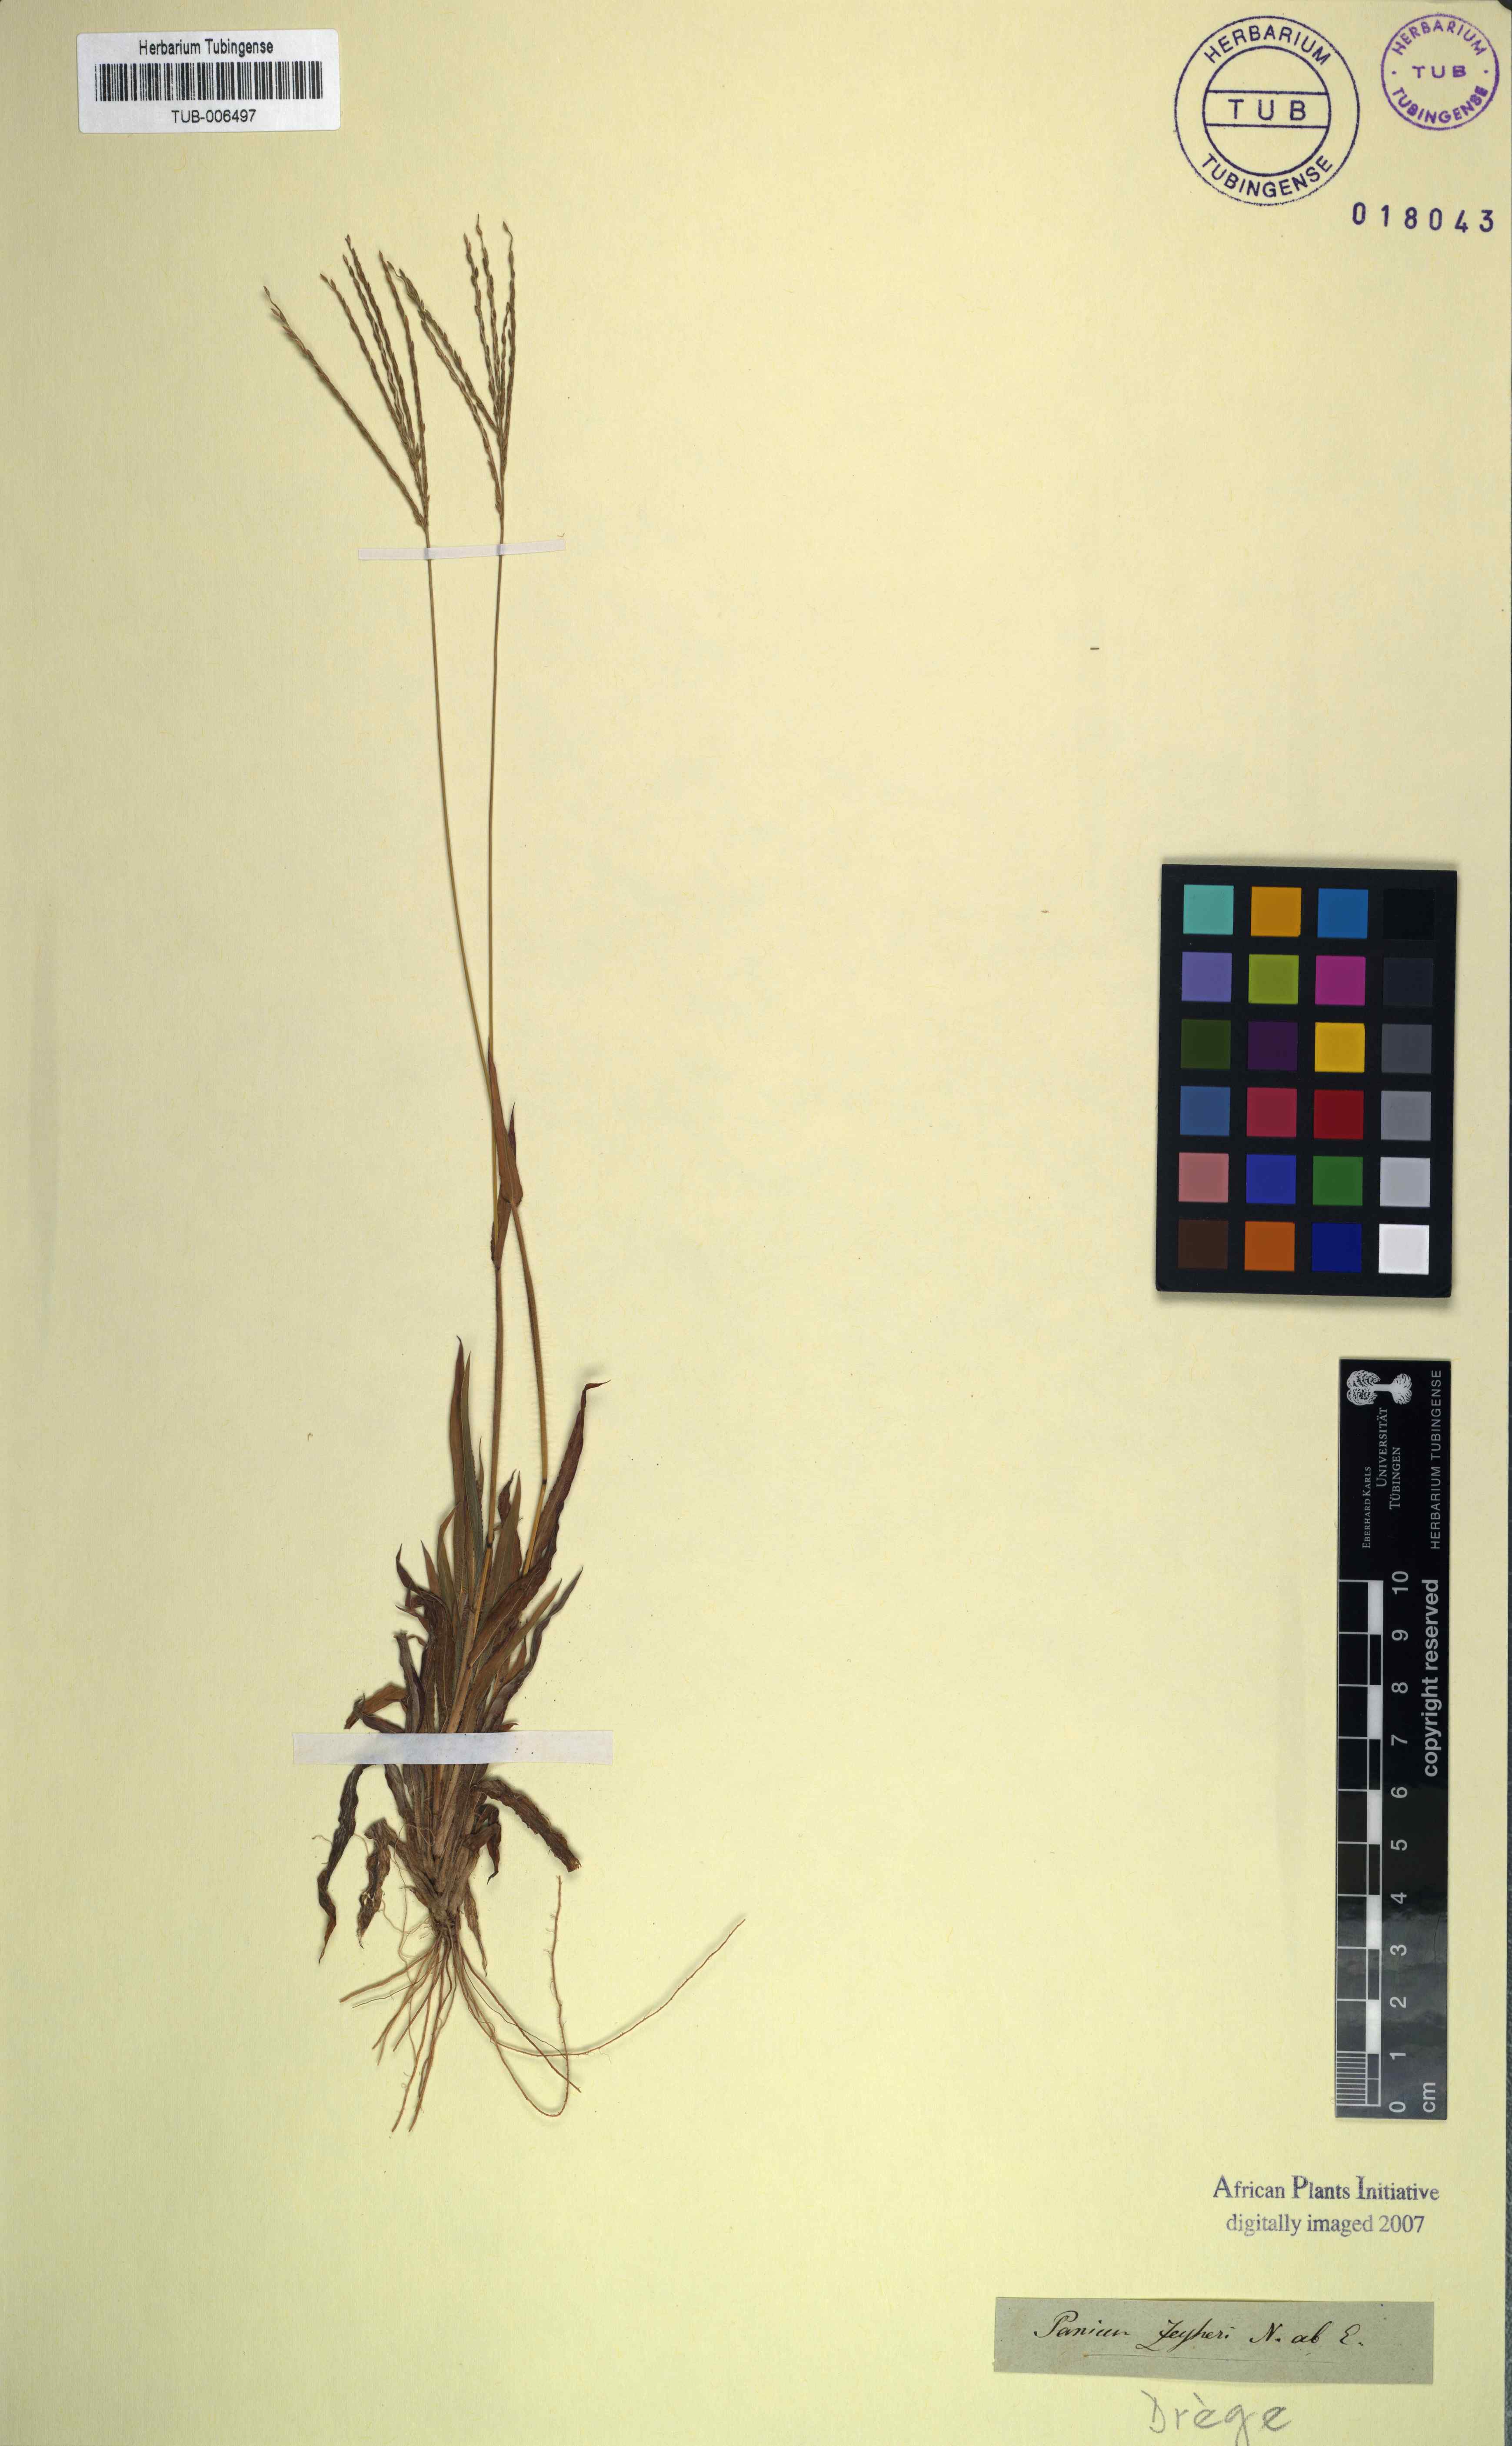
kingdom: Plantae
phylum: Tracheophyta
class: Liliopsida
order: Poales
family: Poaceae
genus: Digitaria
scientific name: Digitaria velutina
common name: Long-plume finger grass
